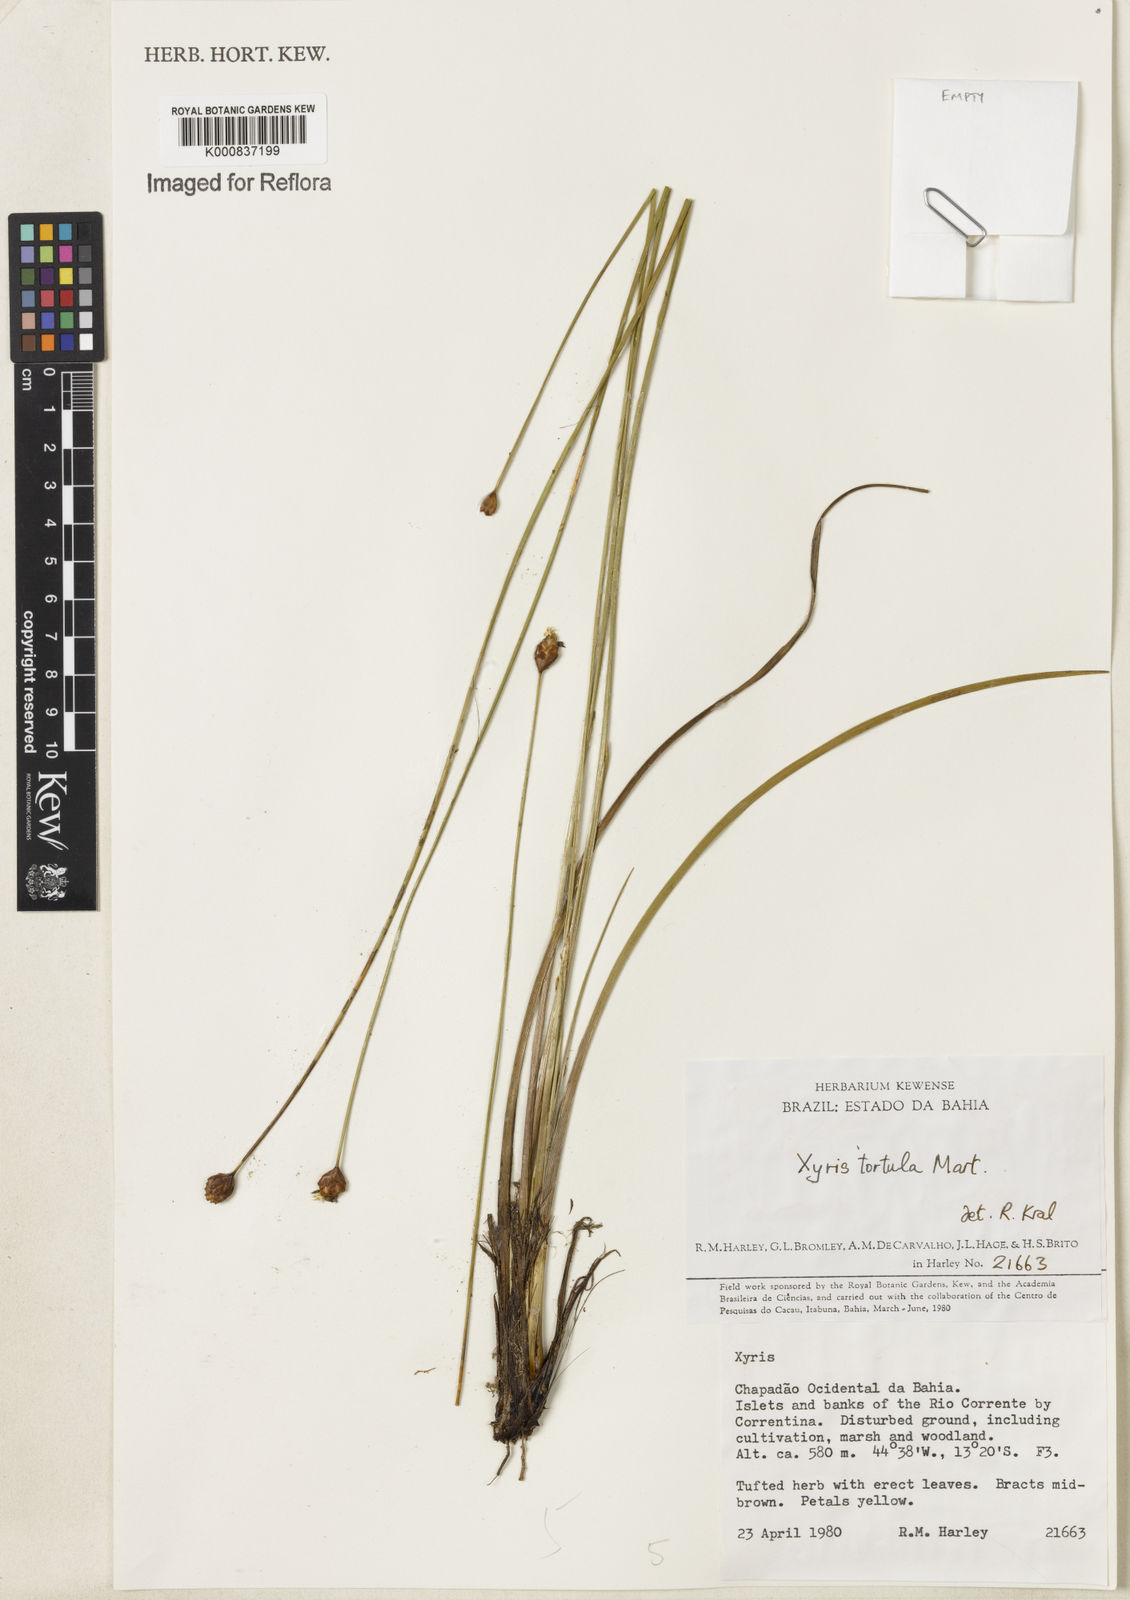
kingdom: Plantae
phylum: Tracheophyta
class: Liliopsida
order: Poales
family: Xyridaceae
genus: Xyris
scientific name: Xyris tortula
